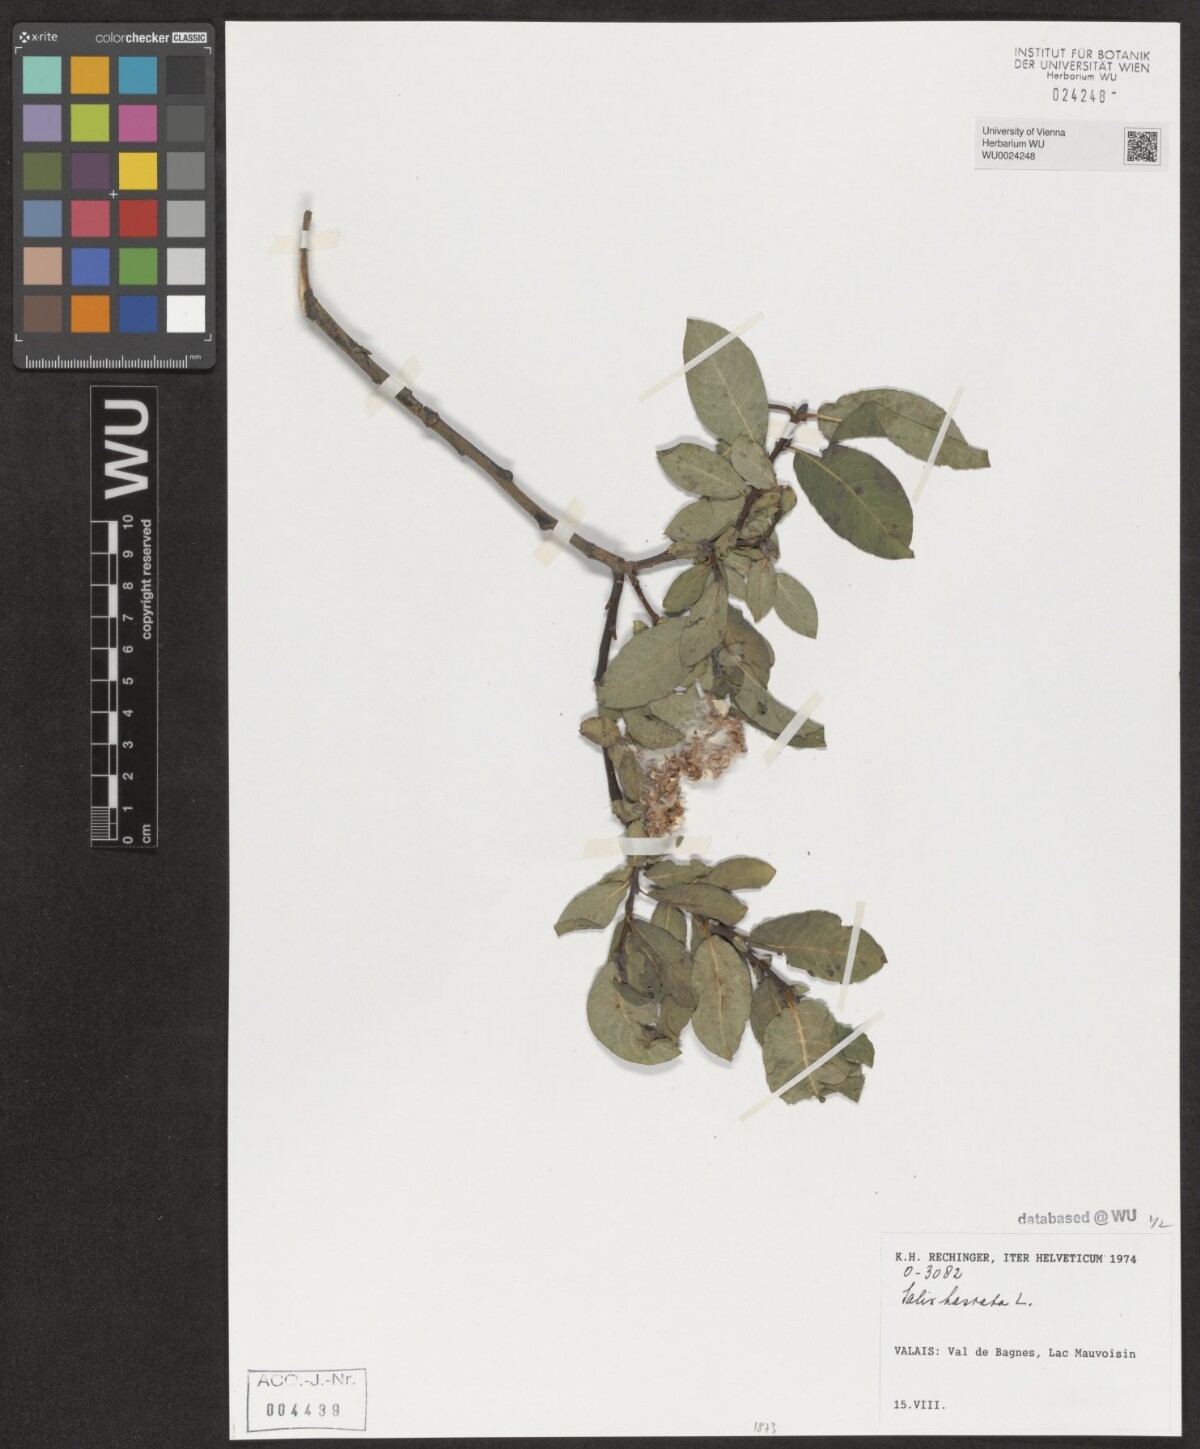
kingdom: Plantae
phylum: Tracheophyta
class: Magnoliopsida
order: Malpighiales
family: Salicaceae
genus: Salix
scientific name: Salix hastata
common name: Halberd willow
